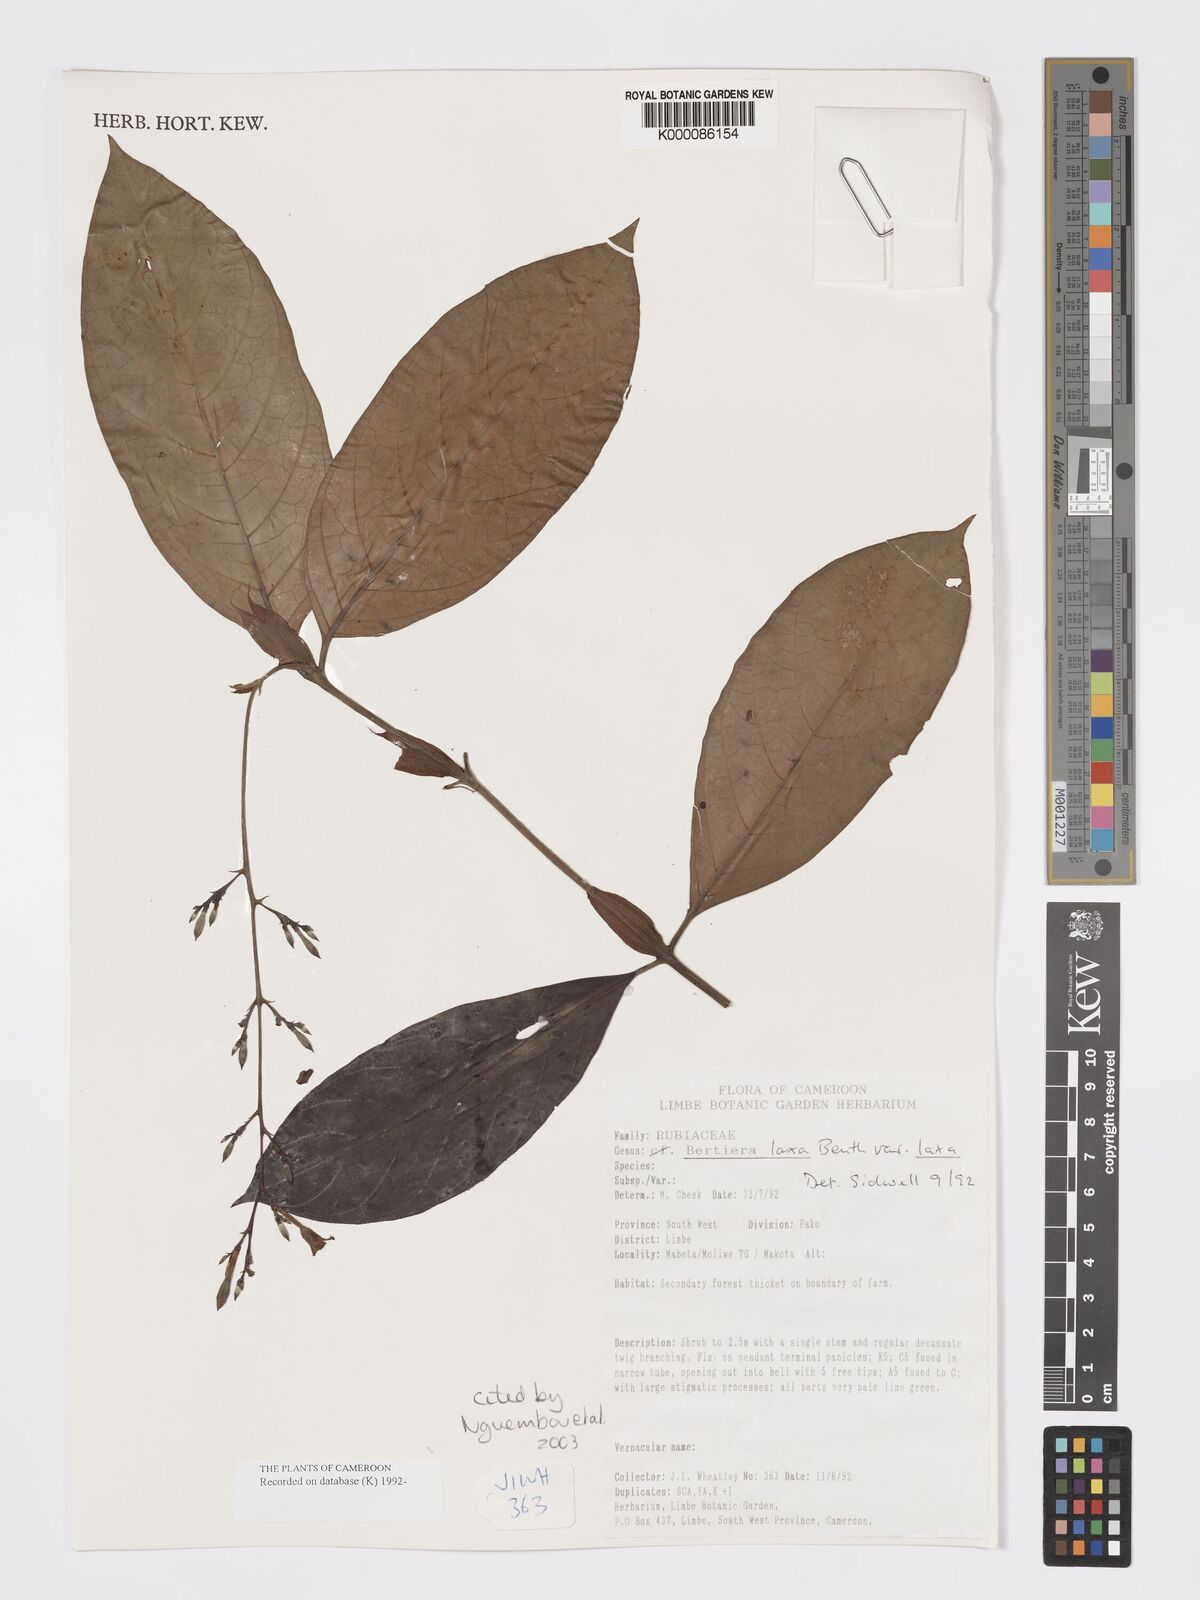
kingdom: Plantae
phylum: Tracheophyta
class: Magnoliopsida
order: Gentianales
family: Rubiaceae
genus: Bertiera
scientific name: Bertiera laxa
